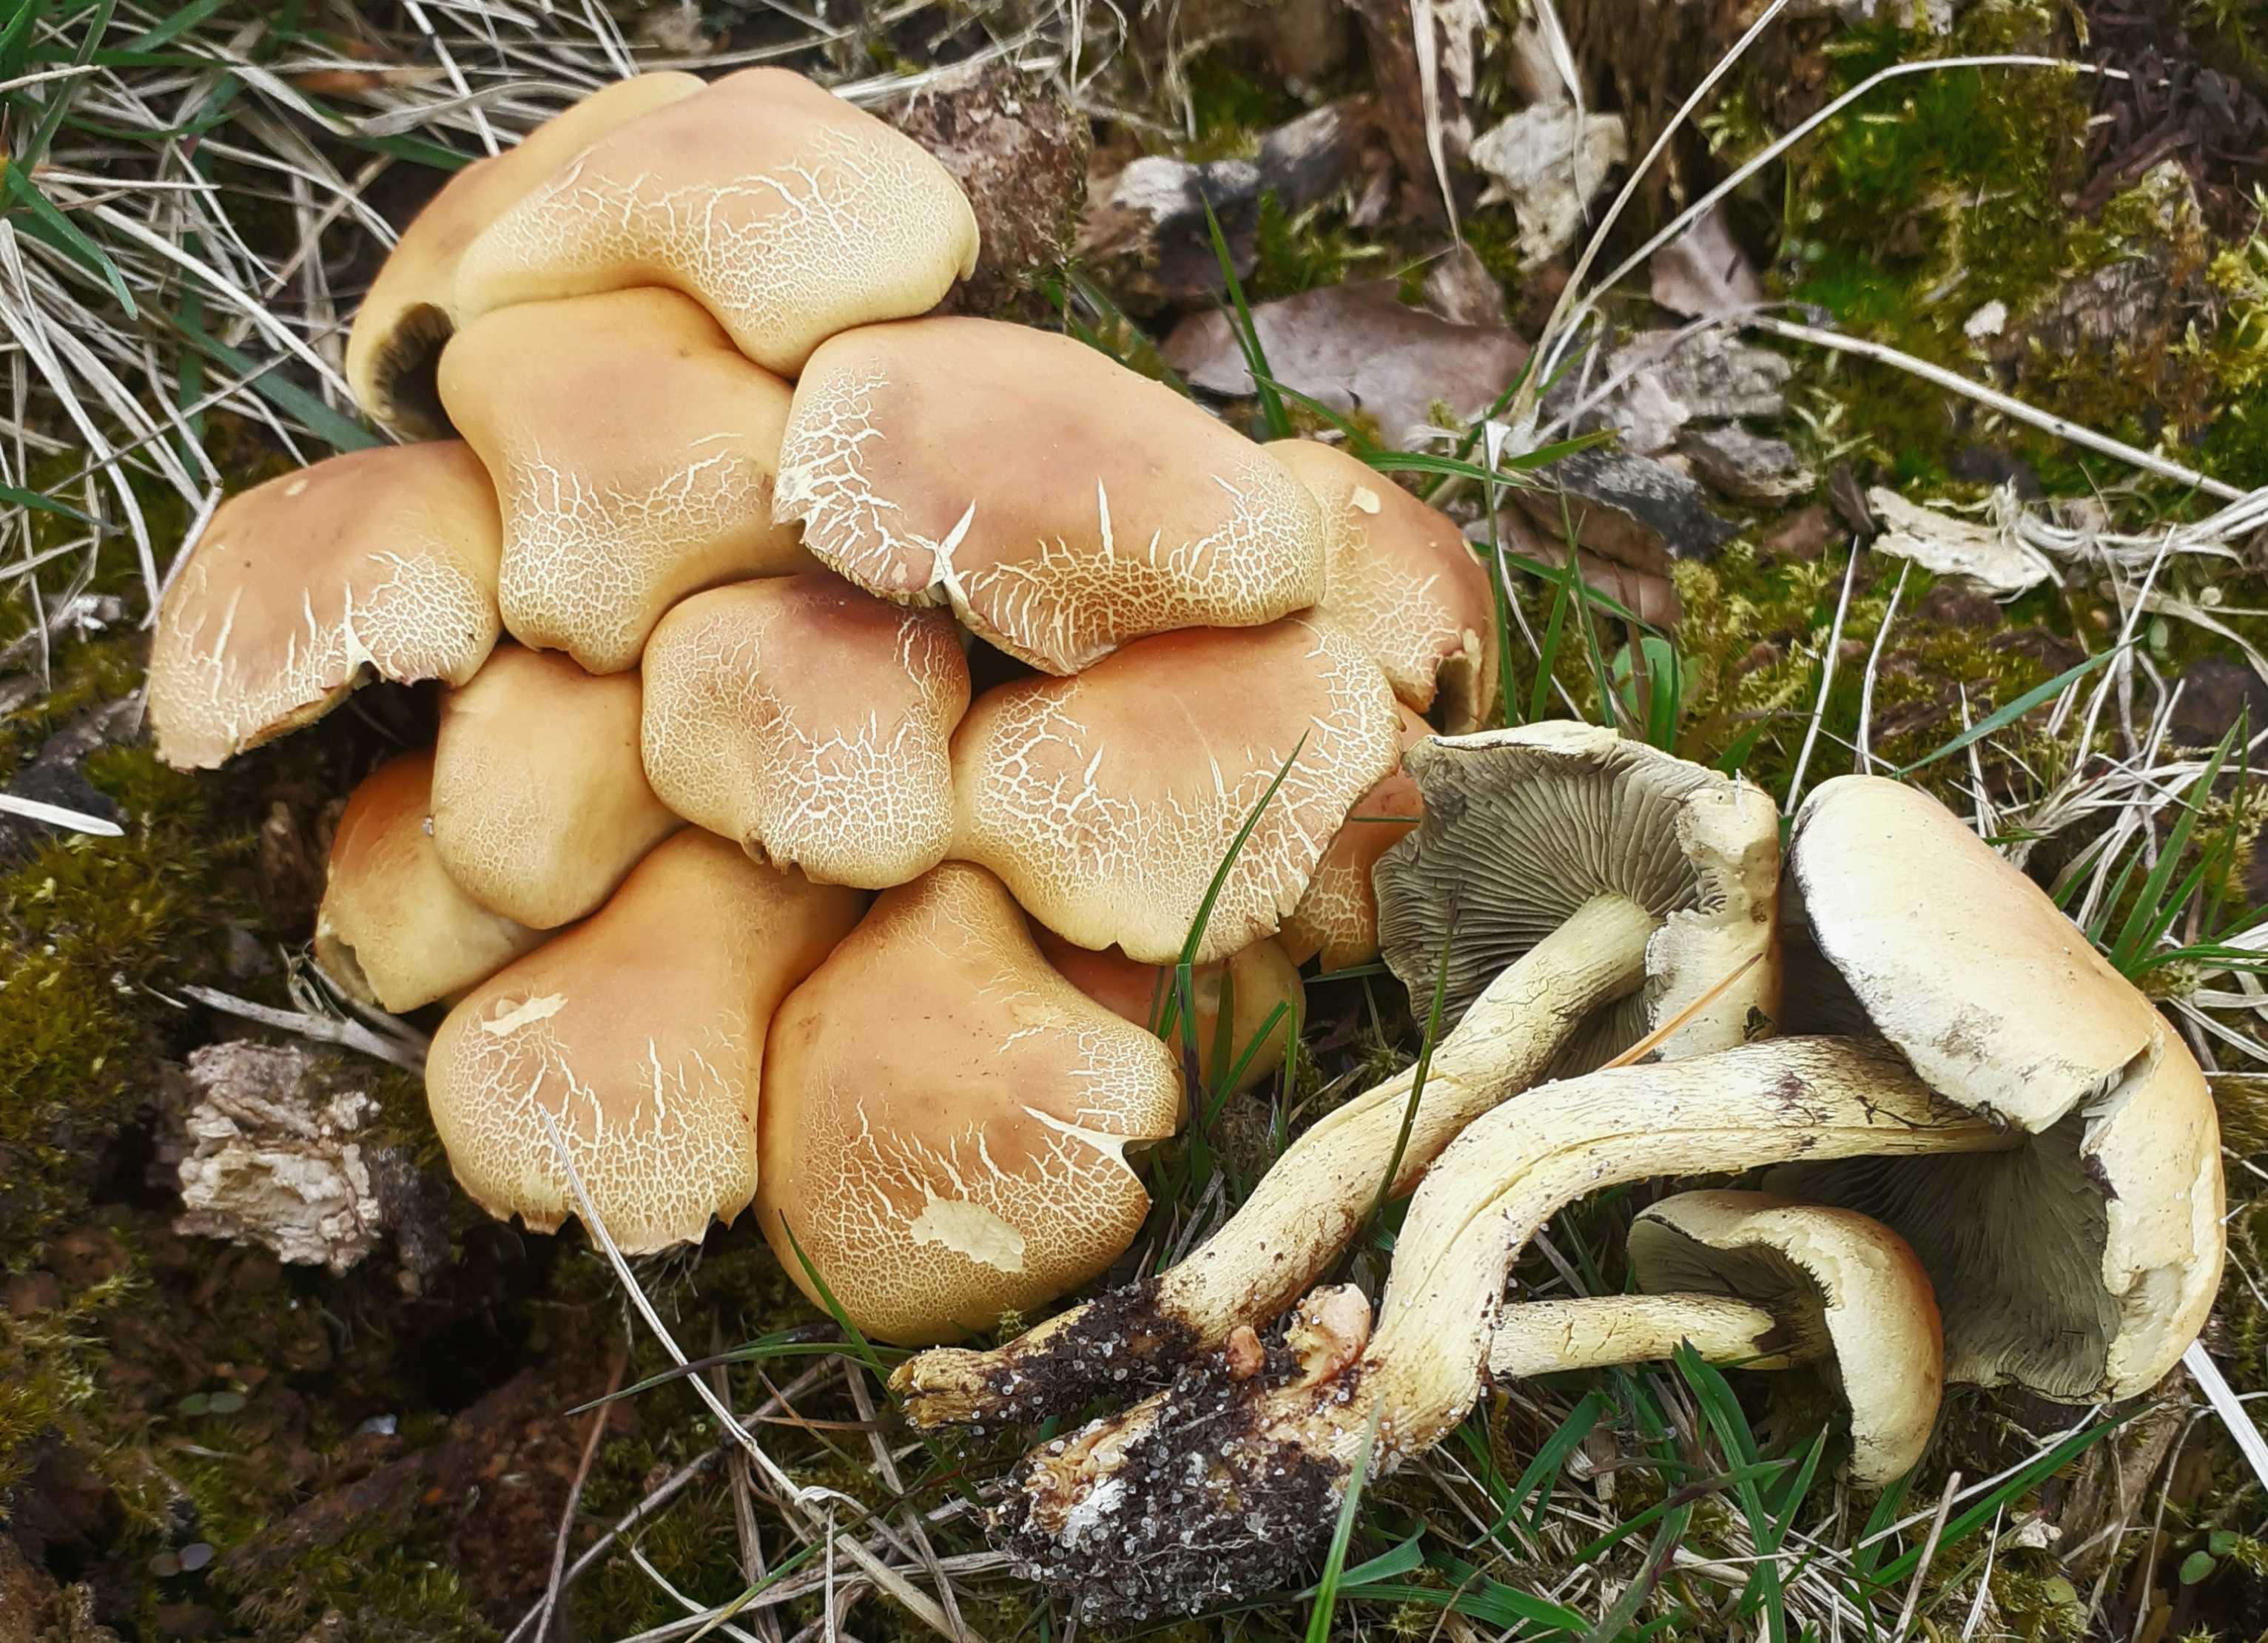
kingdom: Fungi
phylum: Basidiomycota
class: Agaricomycetes
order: Agaricales
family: Strophariaceae
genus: Hypholoma
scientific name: Hypholoma fasciculare
